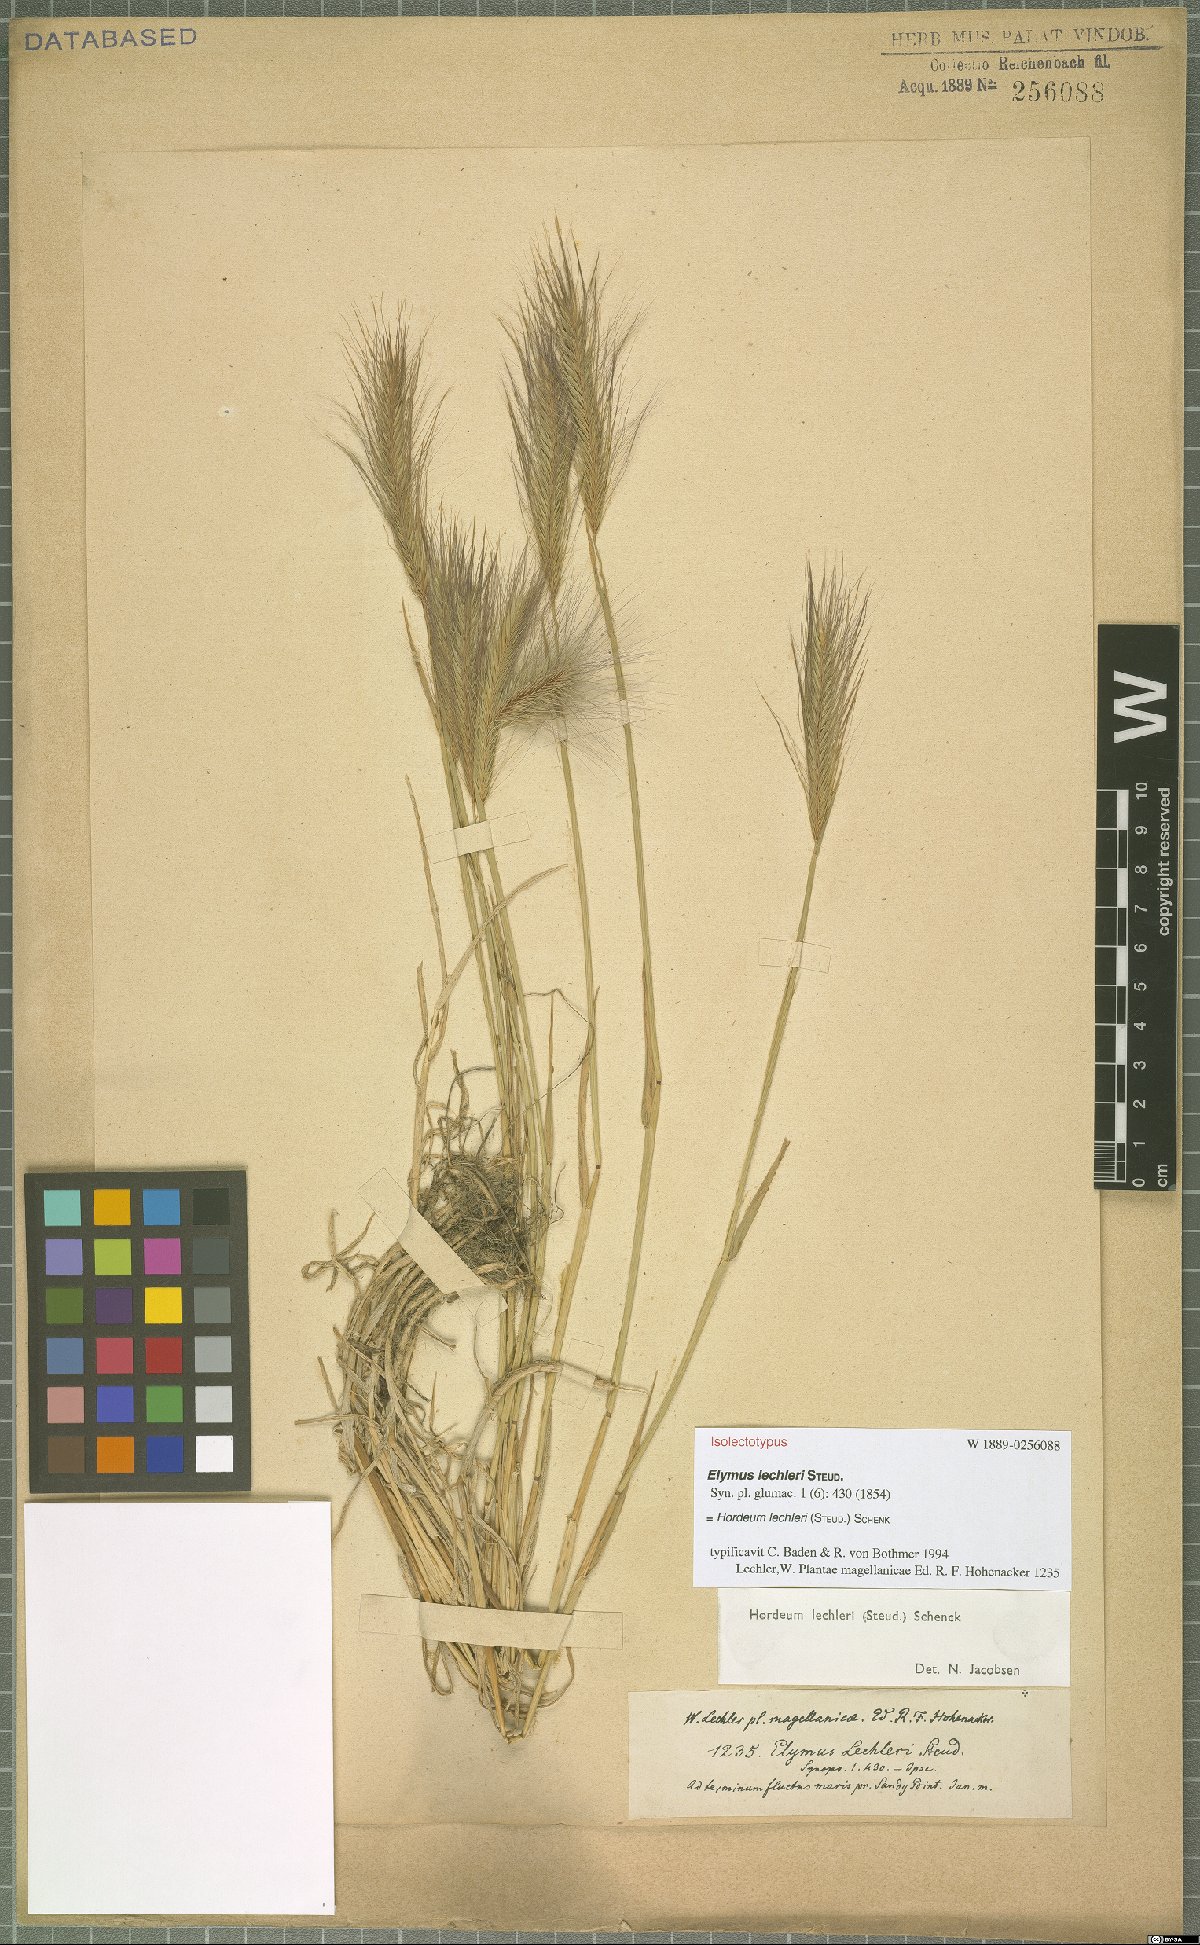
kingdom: Plantae
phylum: Tracheophyta
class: Liliopsida
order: Poales
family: Poaceae
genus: Hordeum
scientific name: Hordeum lechleri
